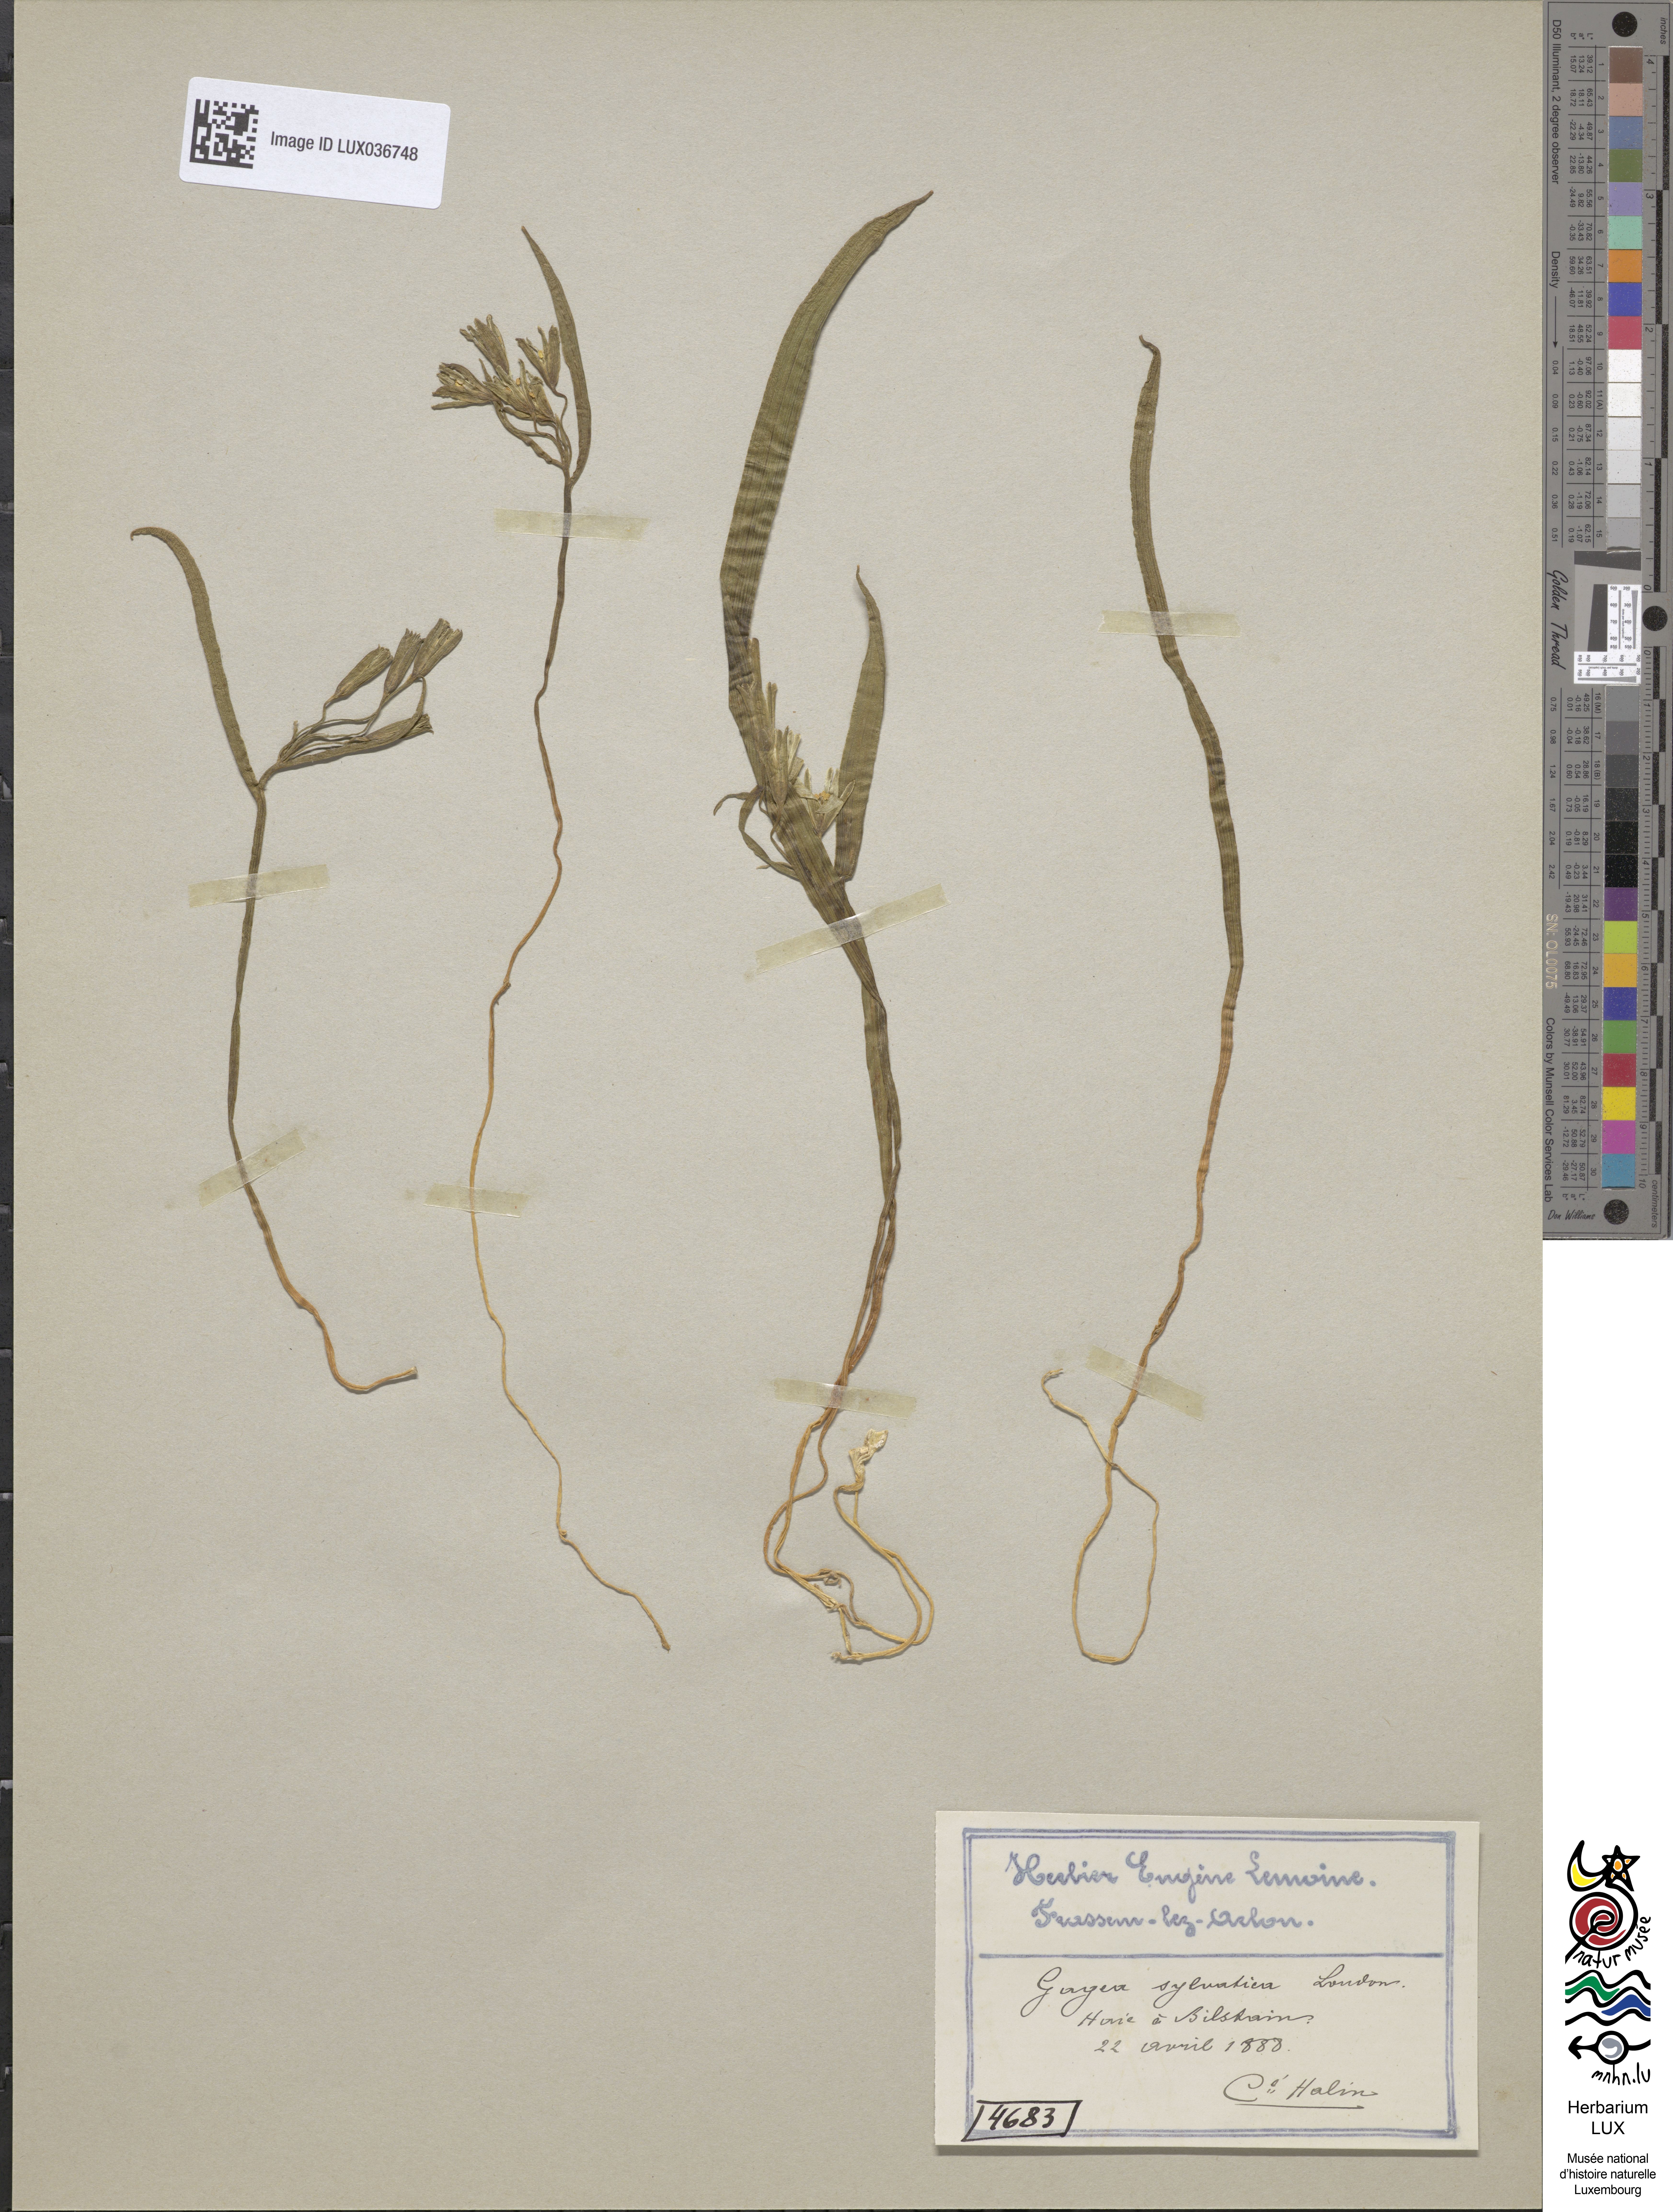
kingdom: Plantae
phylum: Tracheophyta
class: Liliopsida
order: Liliales
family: Liliaceae
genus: Gagea
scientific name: Gagea lutea
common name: Yellow star-of-bethlehem
